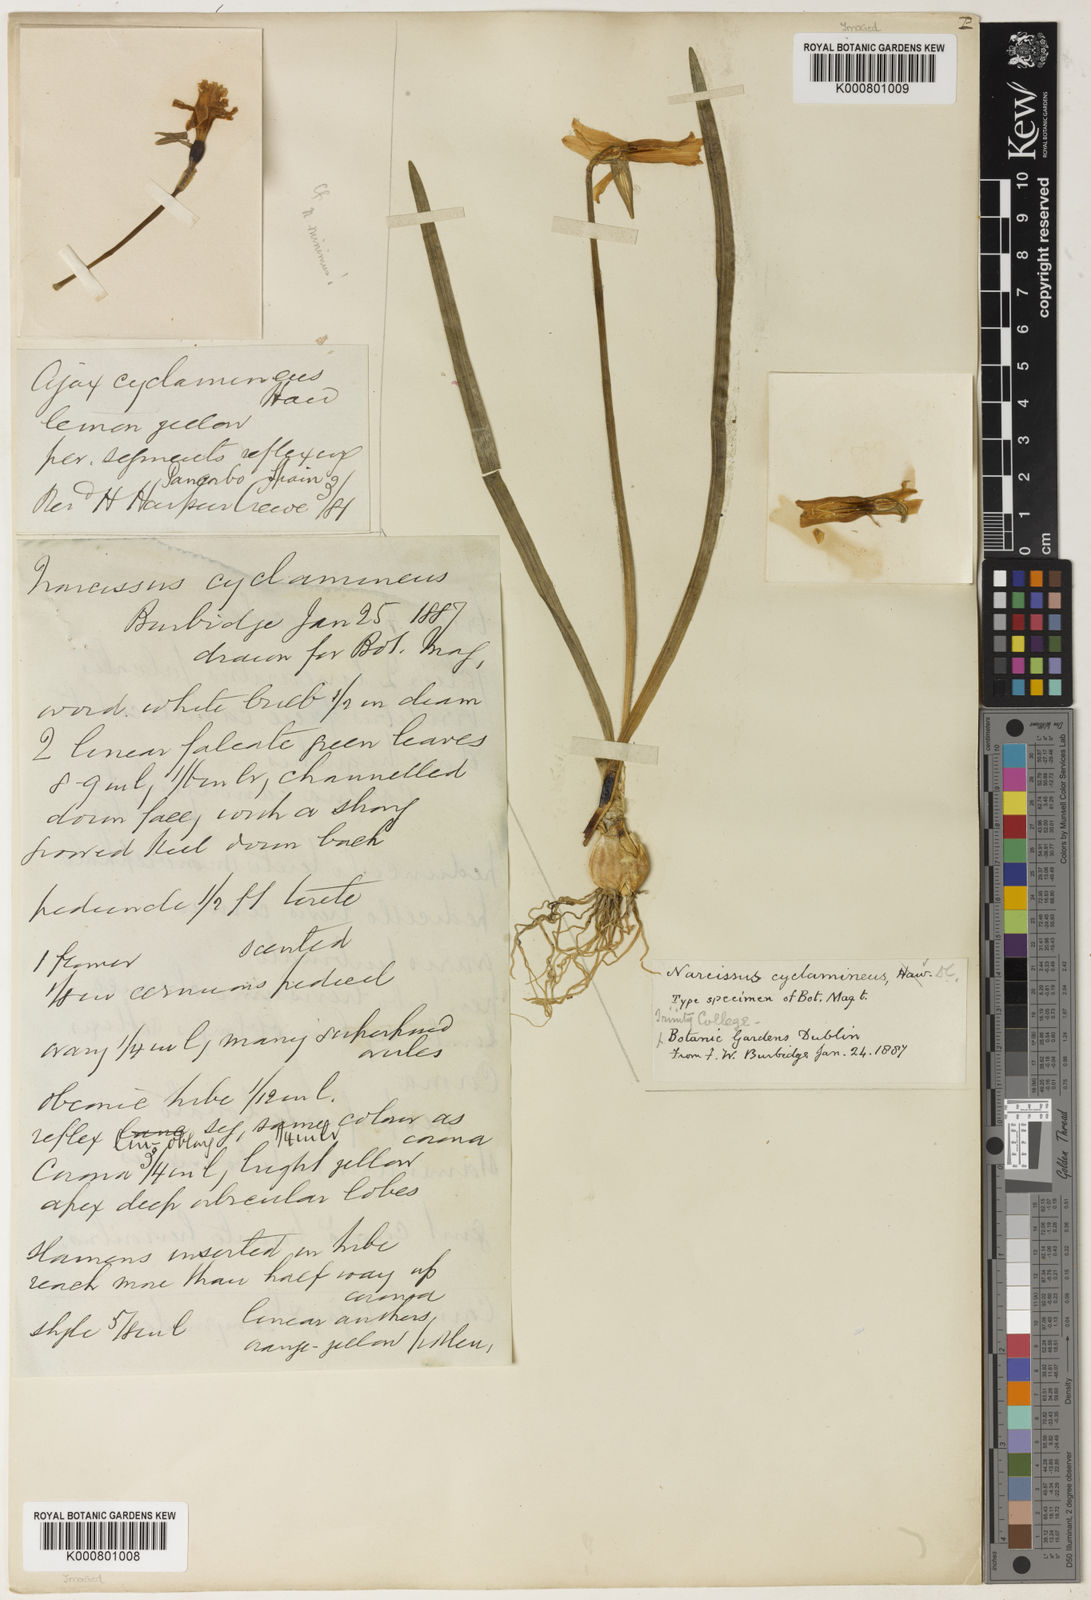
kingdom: Plantae
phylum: Tracheophyta
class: Liliopsida
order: Asparagales
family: Amaryllidaceae
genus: Narcissus
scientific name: Narcissus cyclamineus
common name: Cyclamen-flowered daffodil
